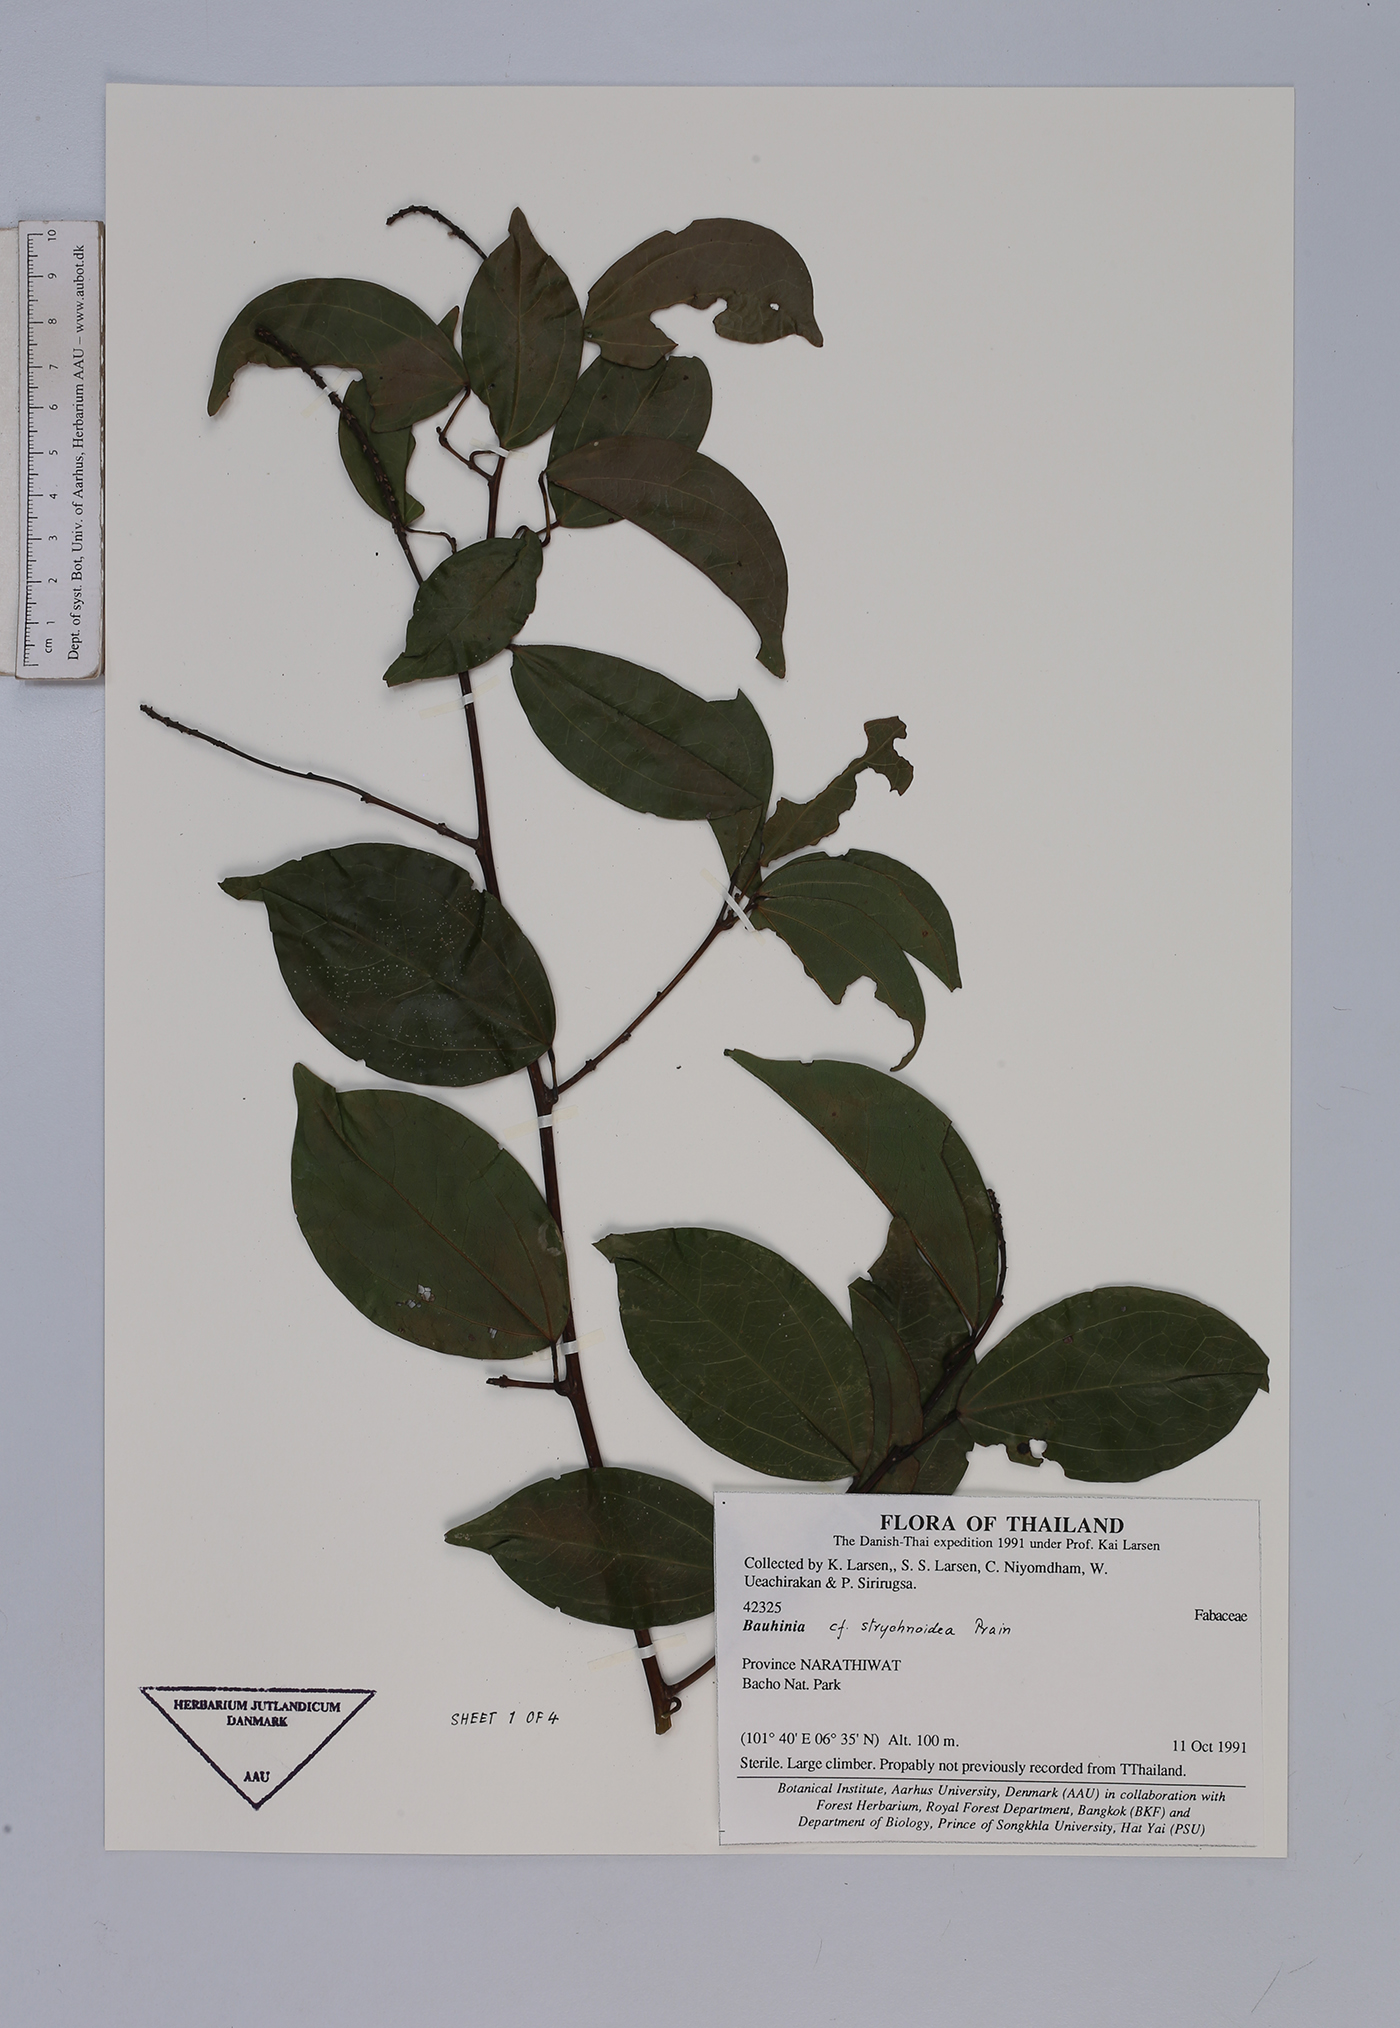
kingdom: Plantae
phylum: Tracheophyta
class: Magnoliopsida
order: Fabales
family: Fabaceae
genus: Bauhinia
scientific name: Bauhinia
